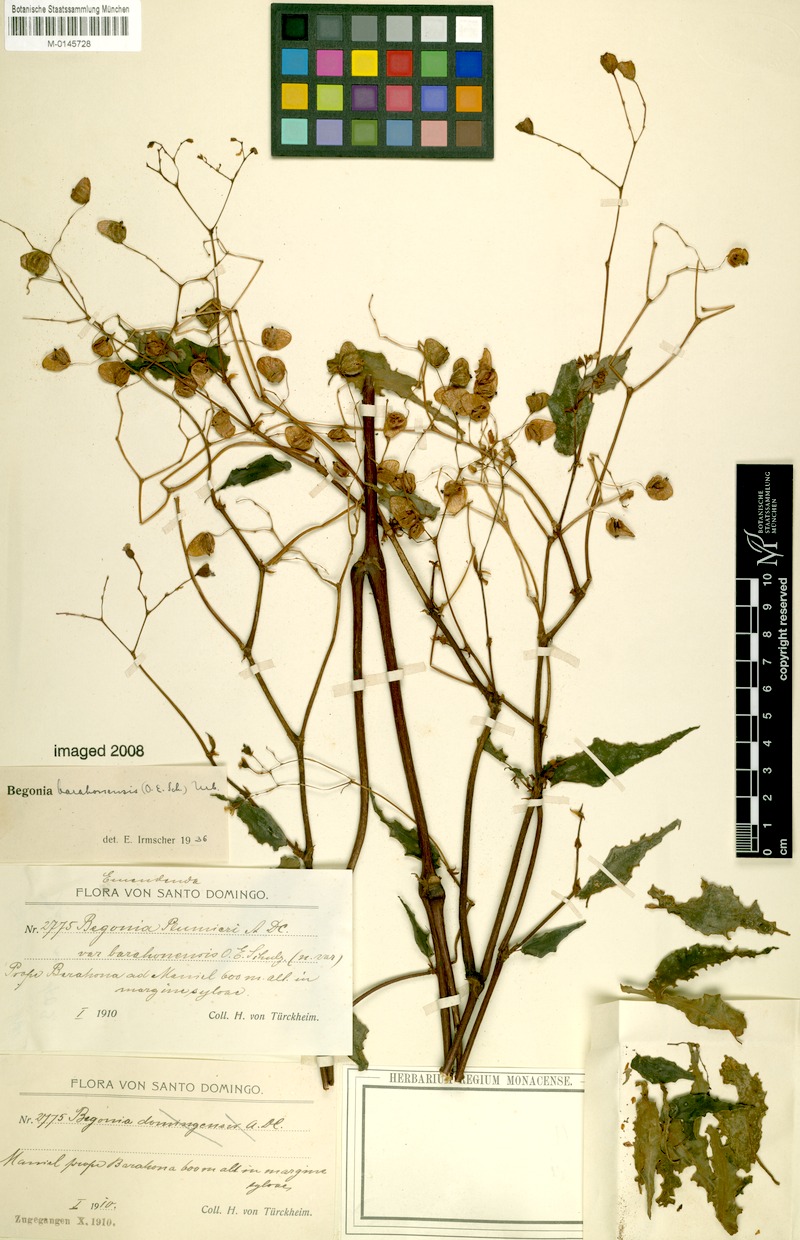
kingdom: Plantae
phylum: Tracheophyta
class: Magnoliopsida
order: Cucurbitales
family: Begoniaceae
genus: Begonia
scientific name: Begonia barahonensis
